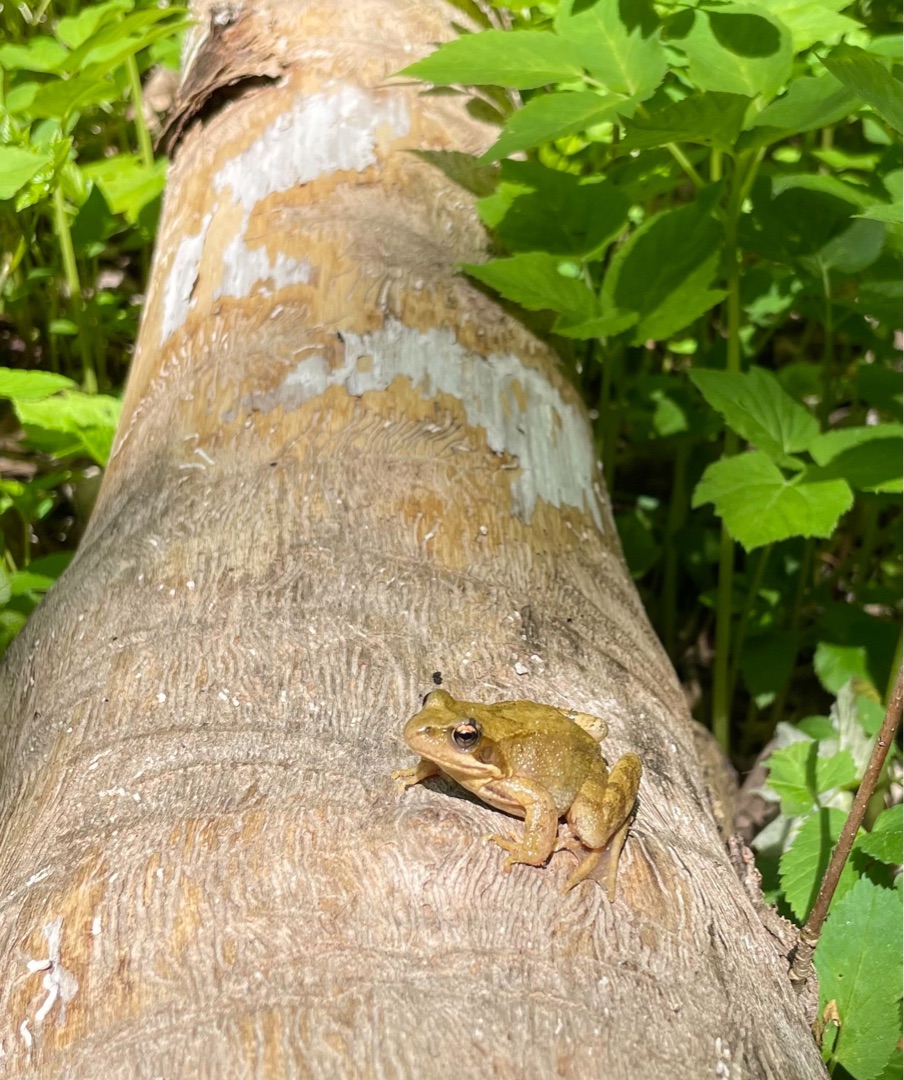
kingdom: Animalia
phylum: Chordata
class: Amphibia
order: Anura
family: Ranidae
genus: Rana
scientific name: Rana temporaria
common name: Butsnudet frø
